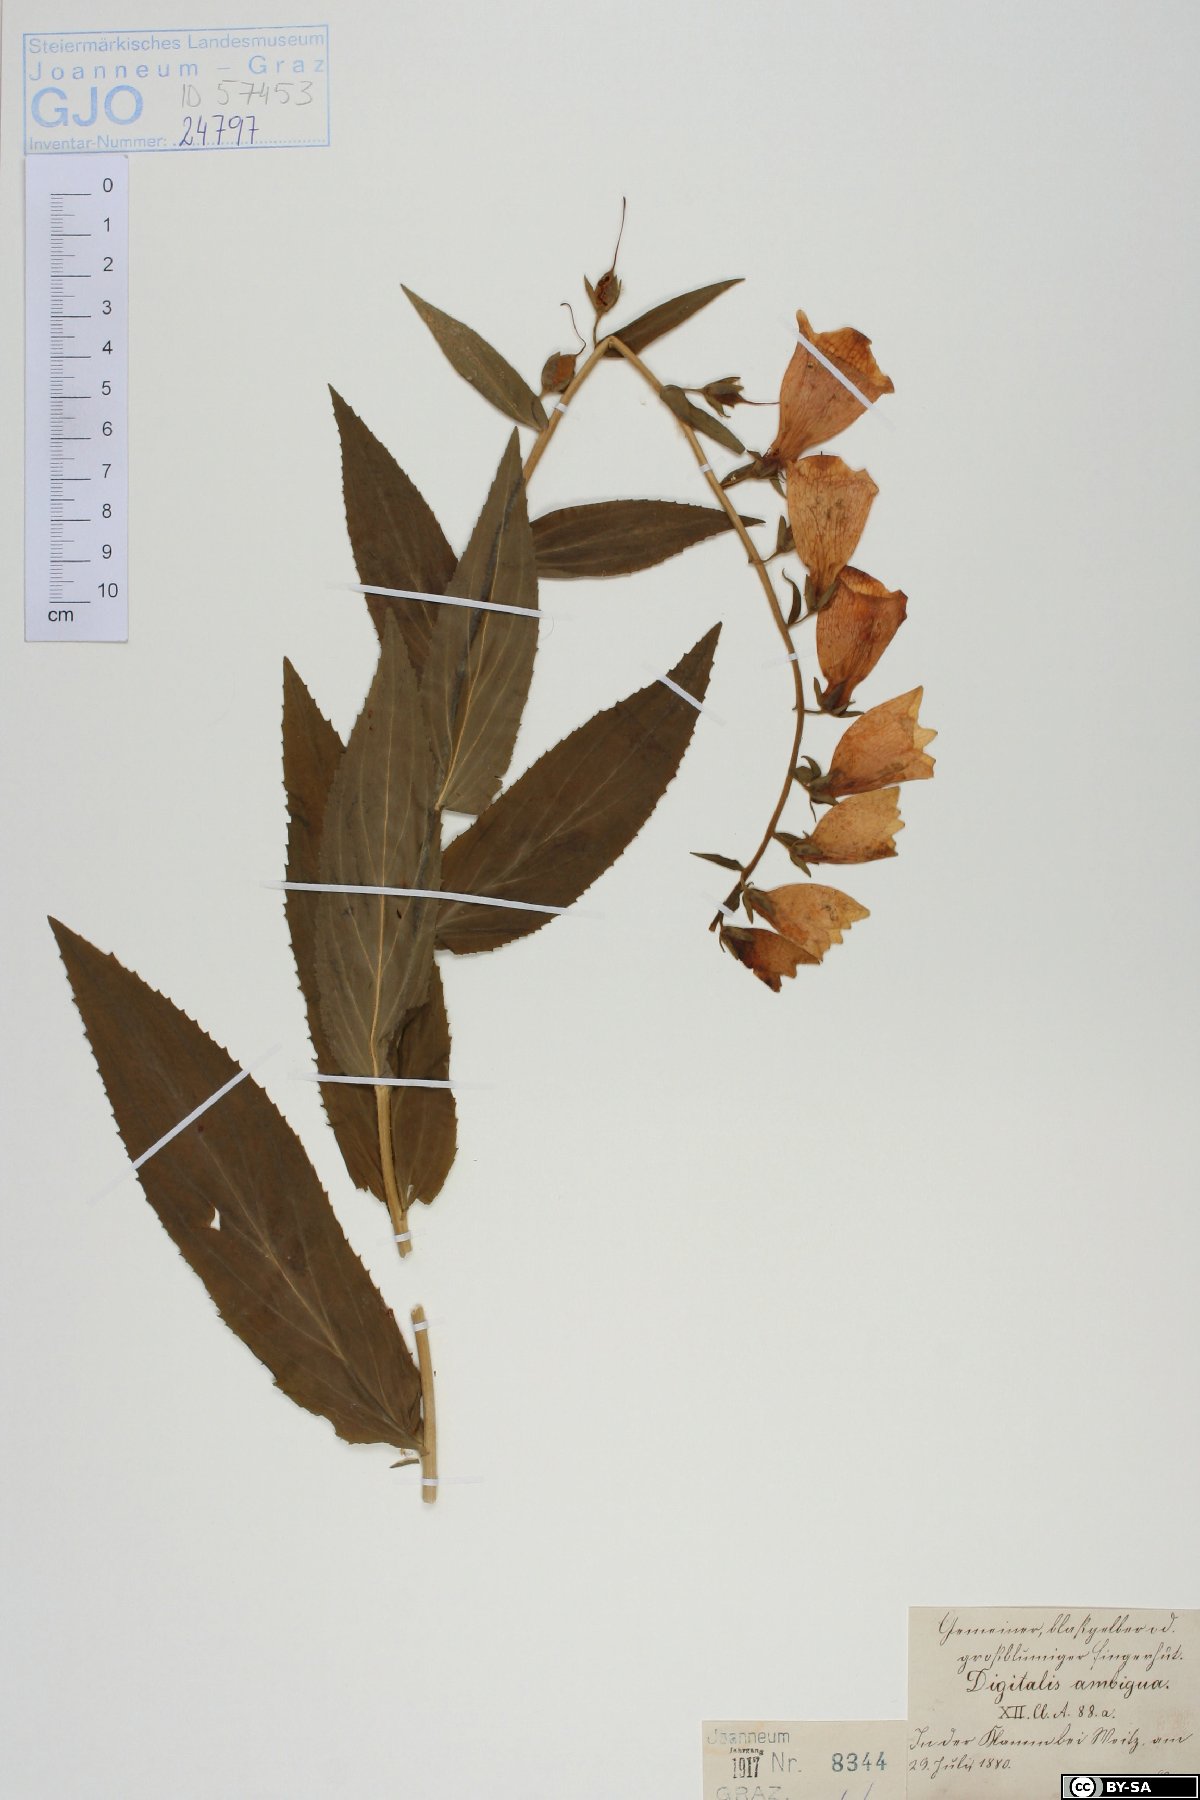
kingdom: Plantae
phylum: Tracheophyta
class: Magnoliopsida
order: Lamiales
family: Plantaginaceae
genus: Digitalis
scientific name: Digitalis grandiflora
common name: Yellow foxglove
